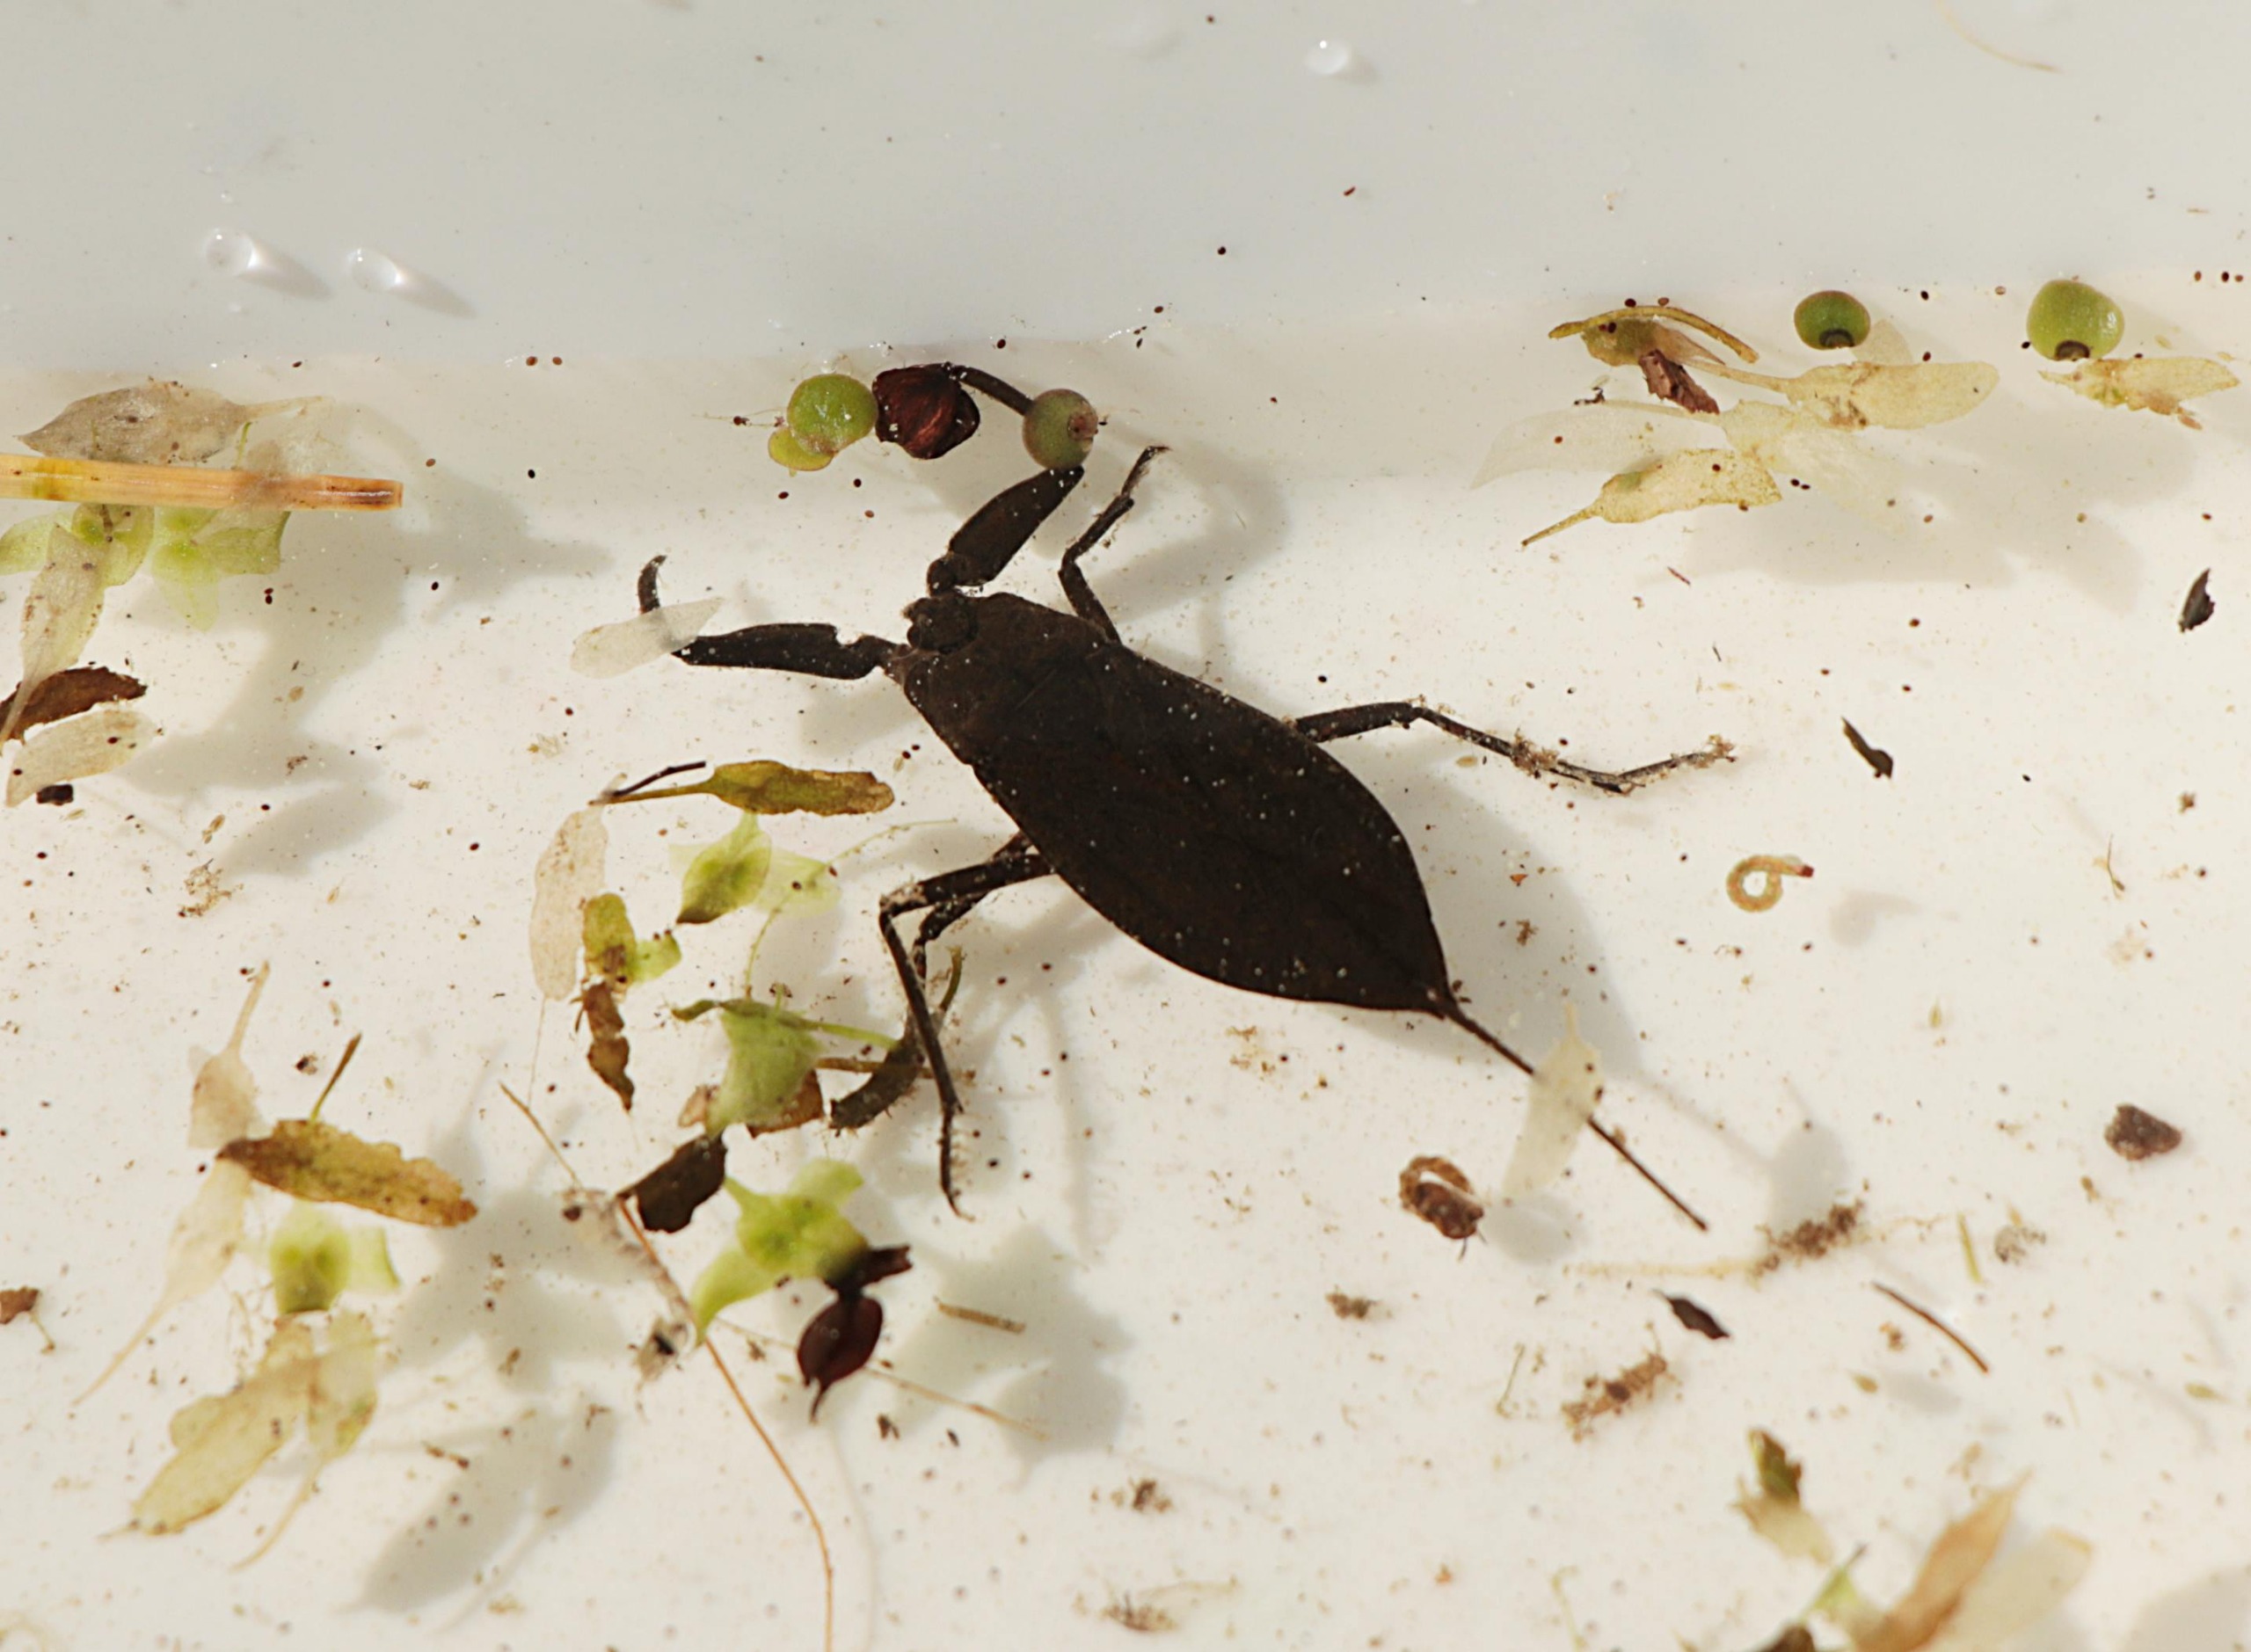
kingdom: Animalia
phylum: Arthropoda
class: Insecta
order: Hemiptera
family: Nepidae
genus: Nepa
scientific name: Nepa cinerea
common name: Skorpiontæge
